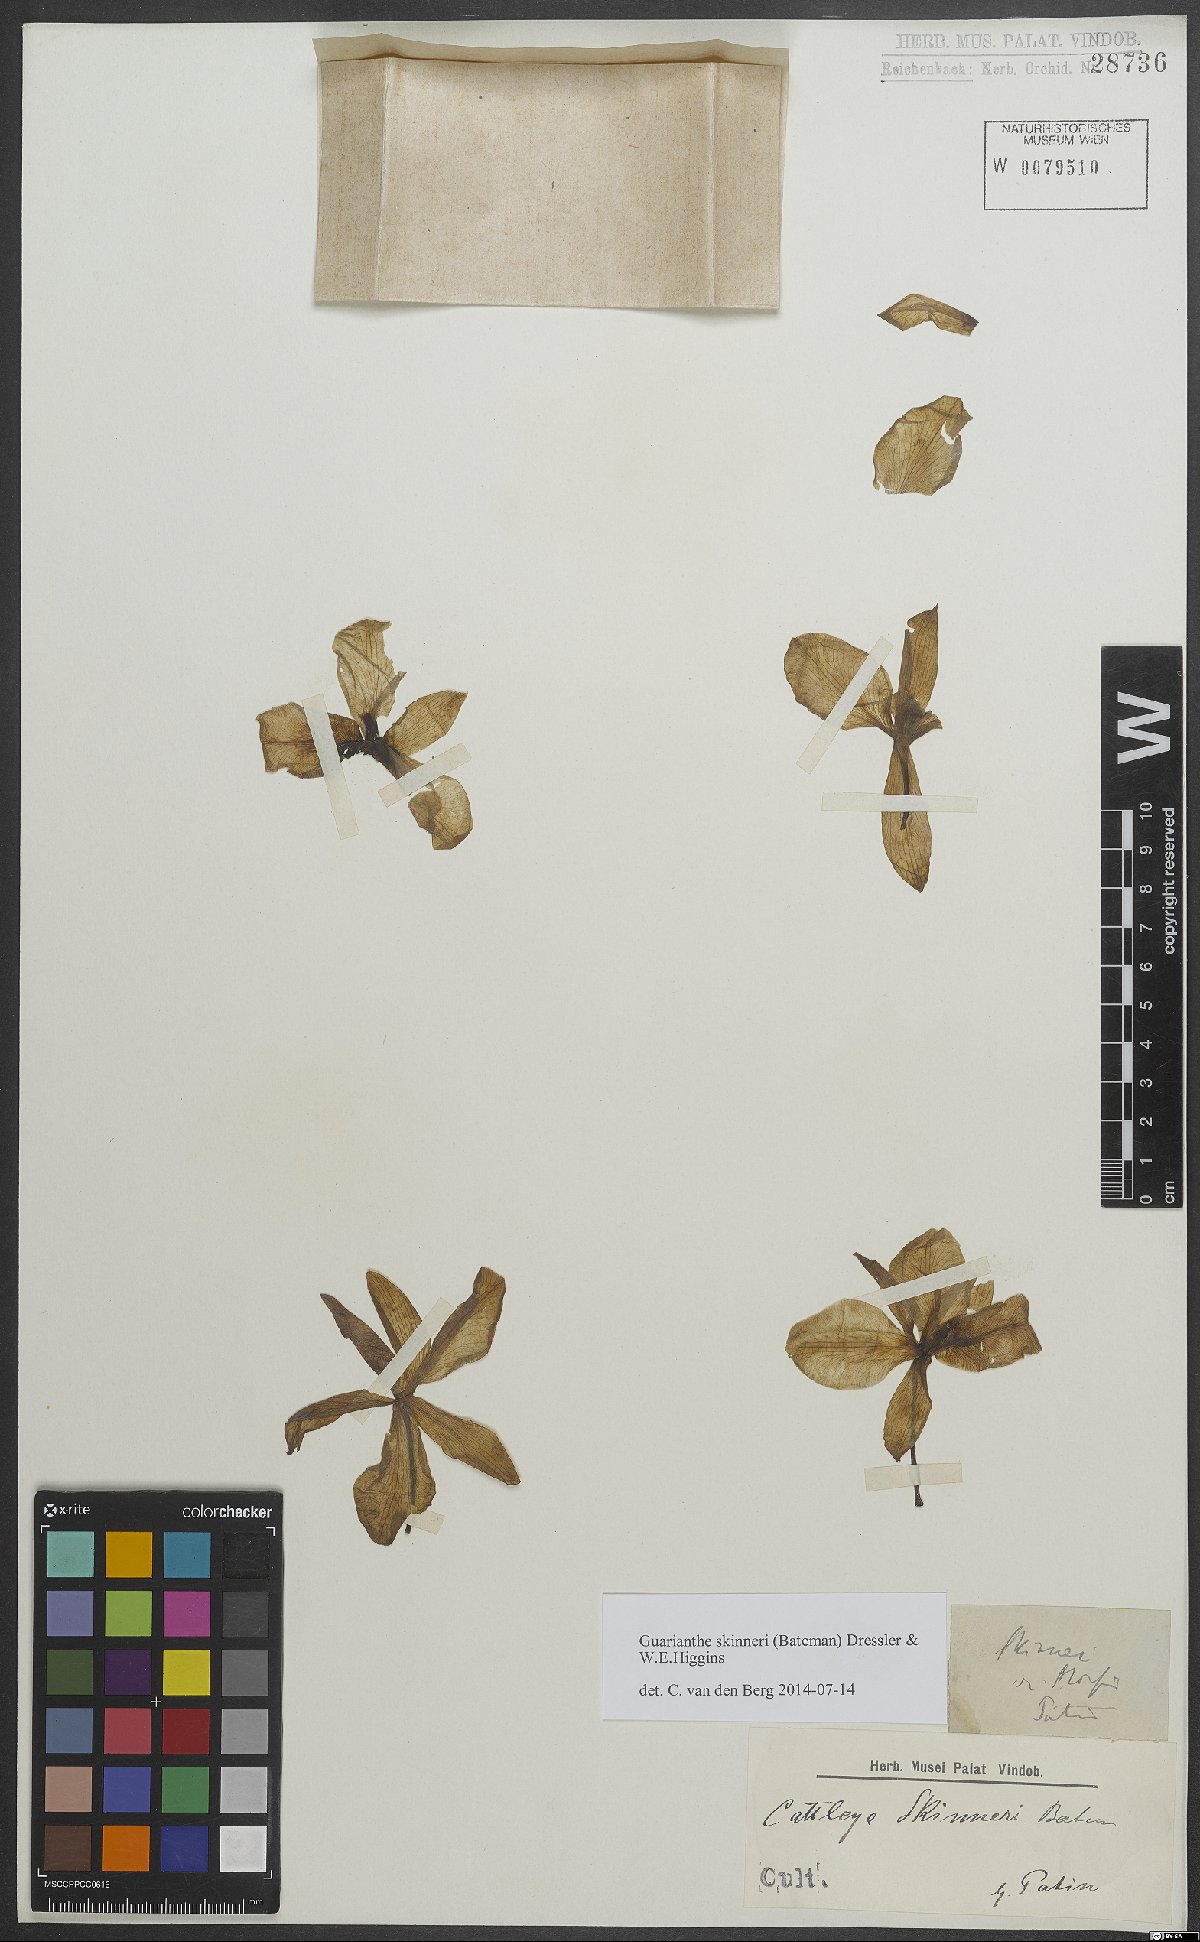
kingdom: Plantae
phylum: Tracheophyta
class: Liliopsida
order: Asparagales
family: Orchidaceae
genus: Guarianthe
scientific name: Guarianthe skinneri
